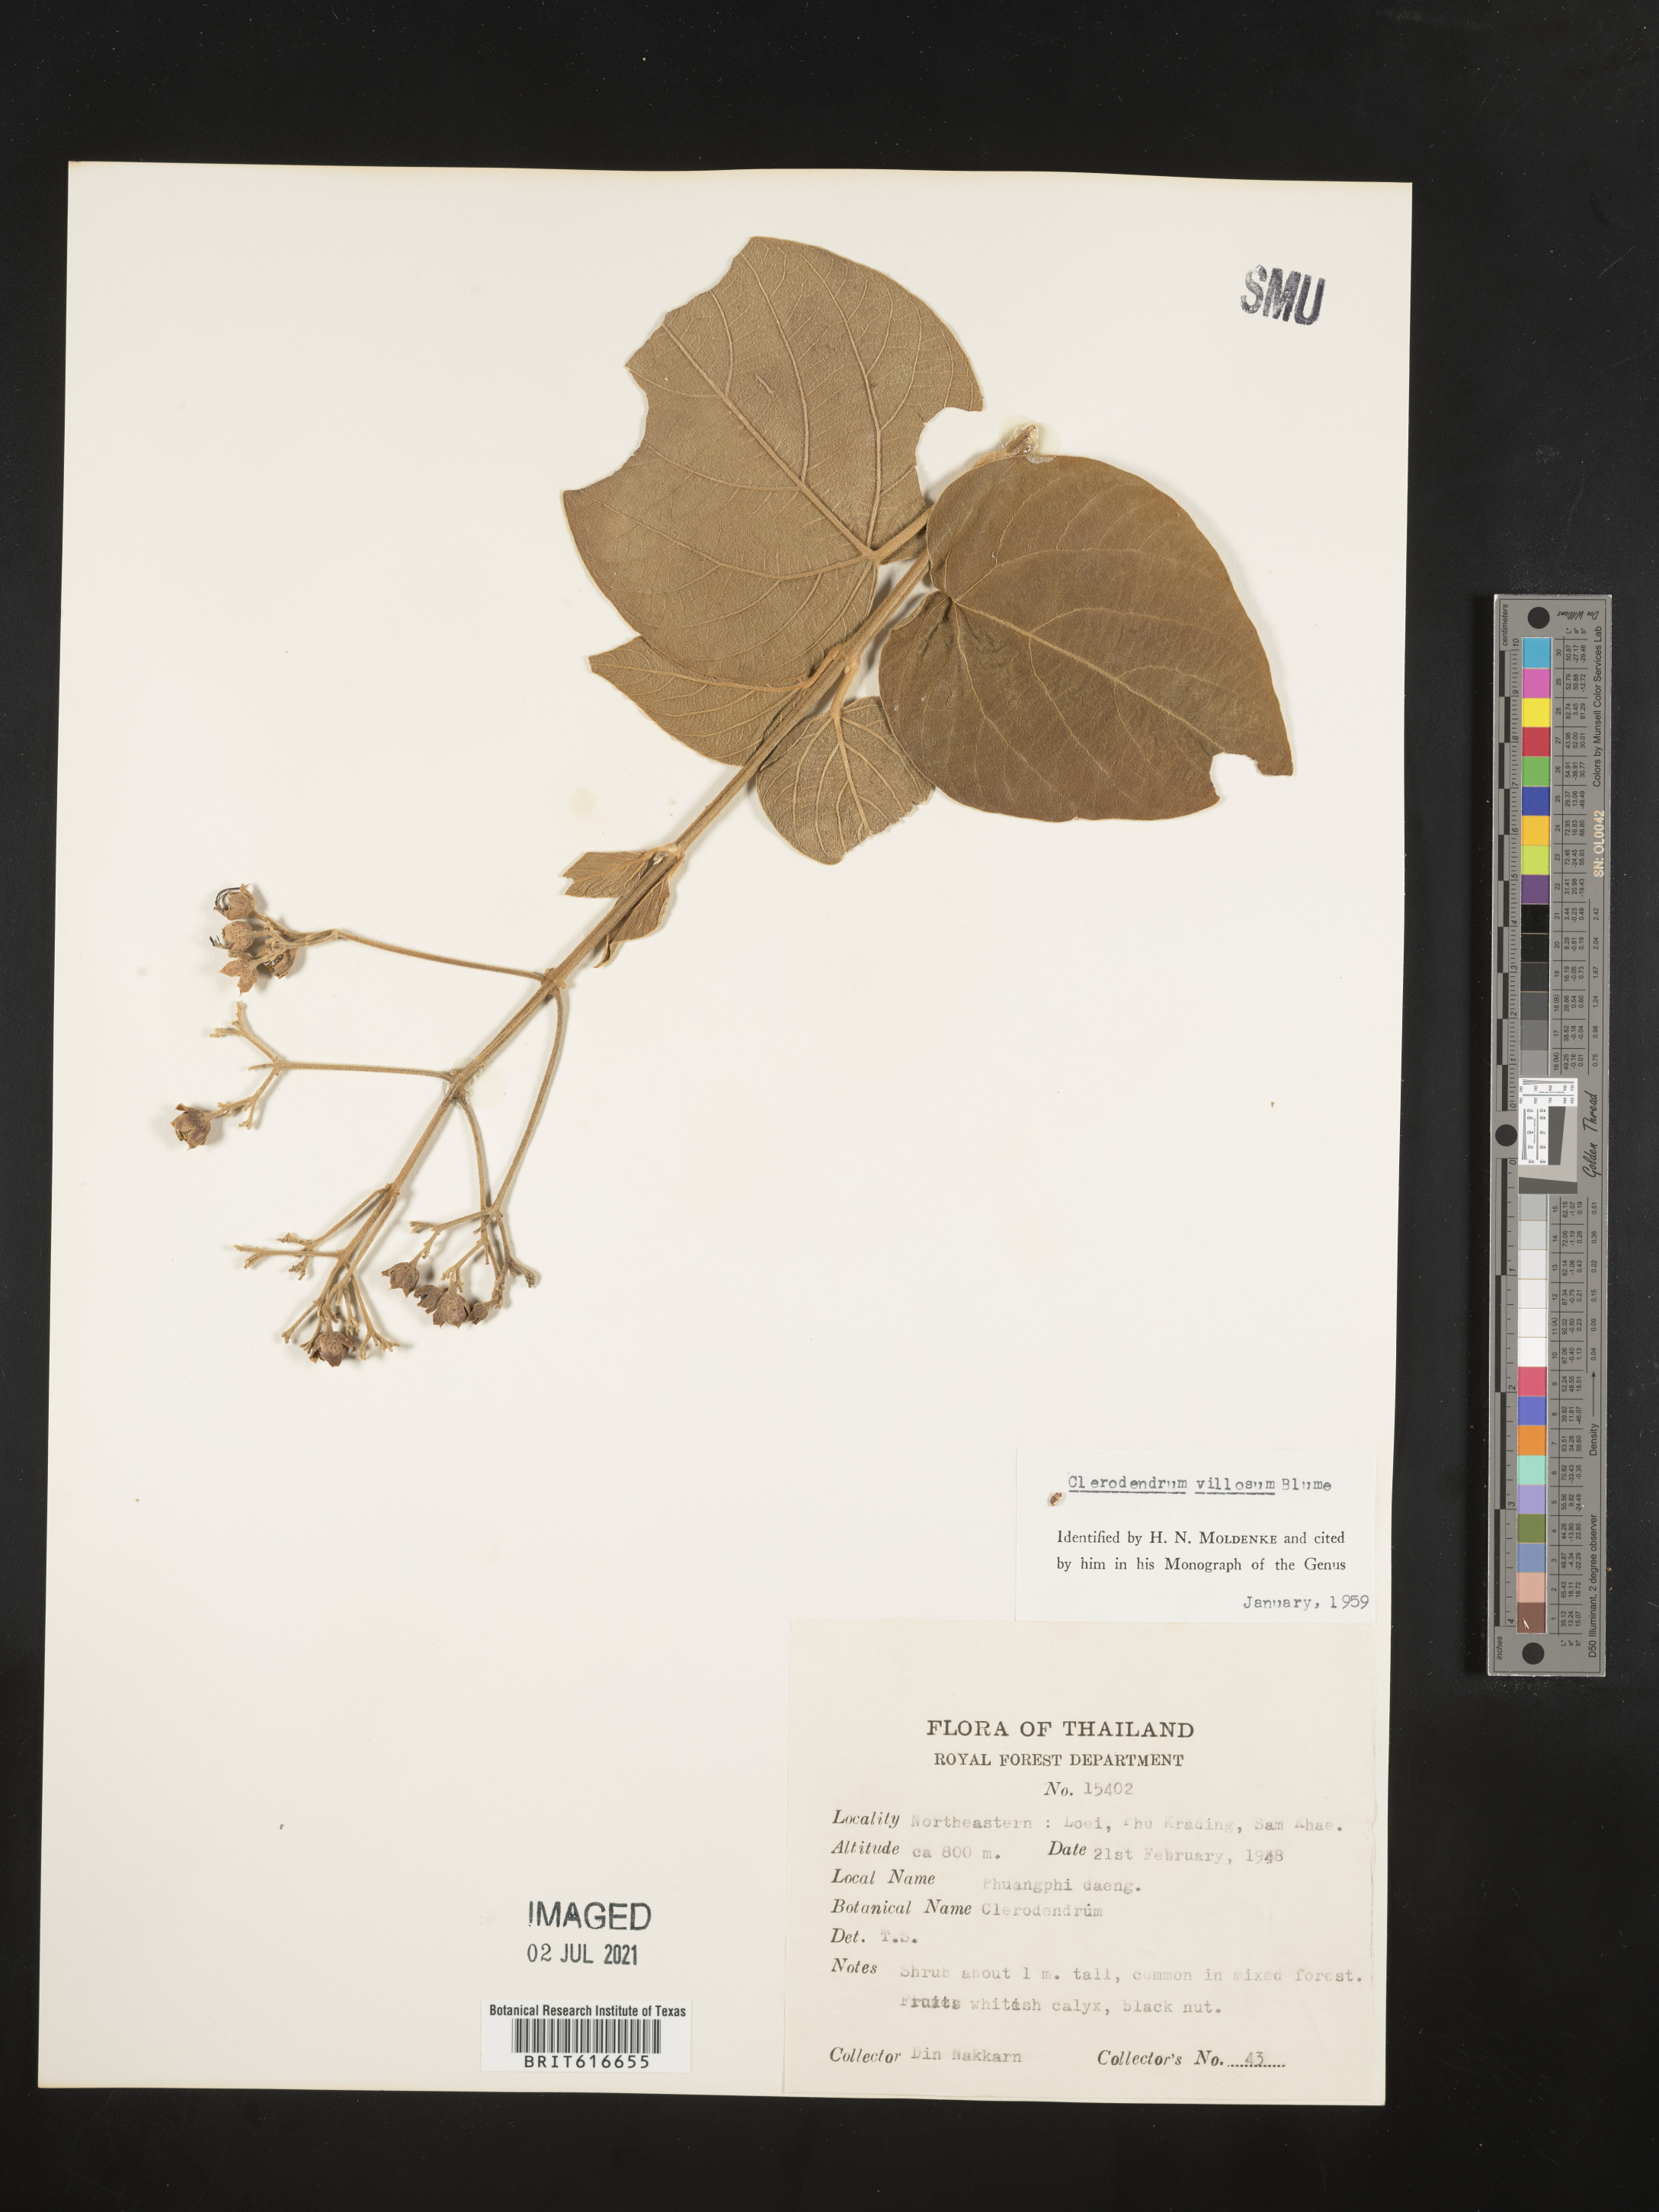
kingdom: Plantae
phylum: Tracheophyta
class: Magnoliopsida
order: Lamiales
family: Lamiaceae
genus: Rotheca
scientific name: Rotheca myricoides
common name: Cats-whiskers
